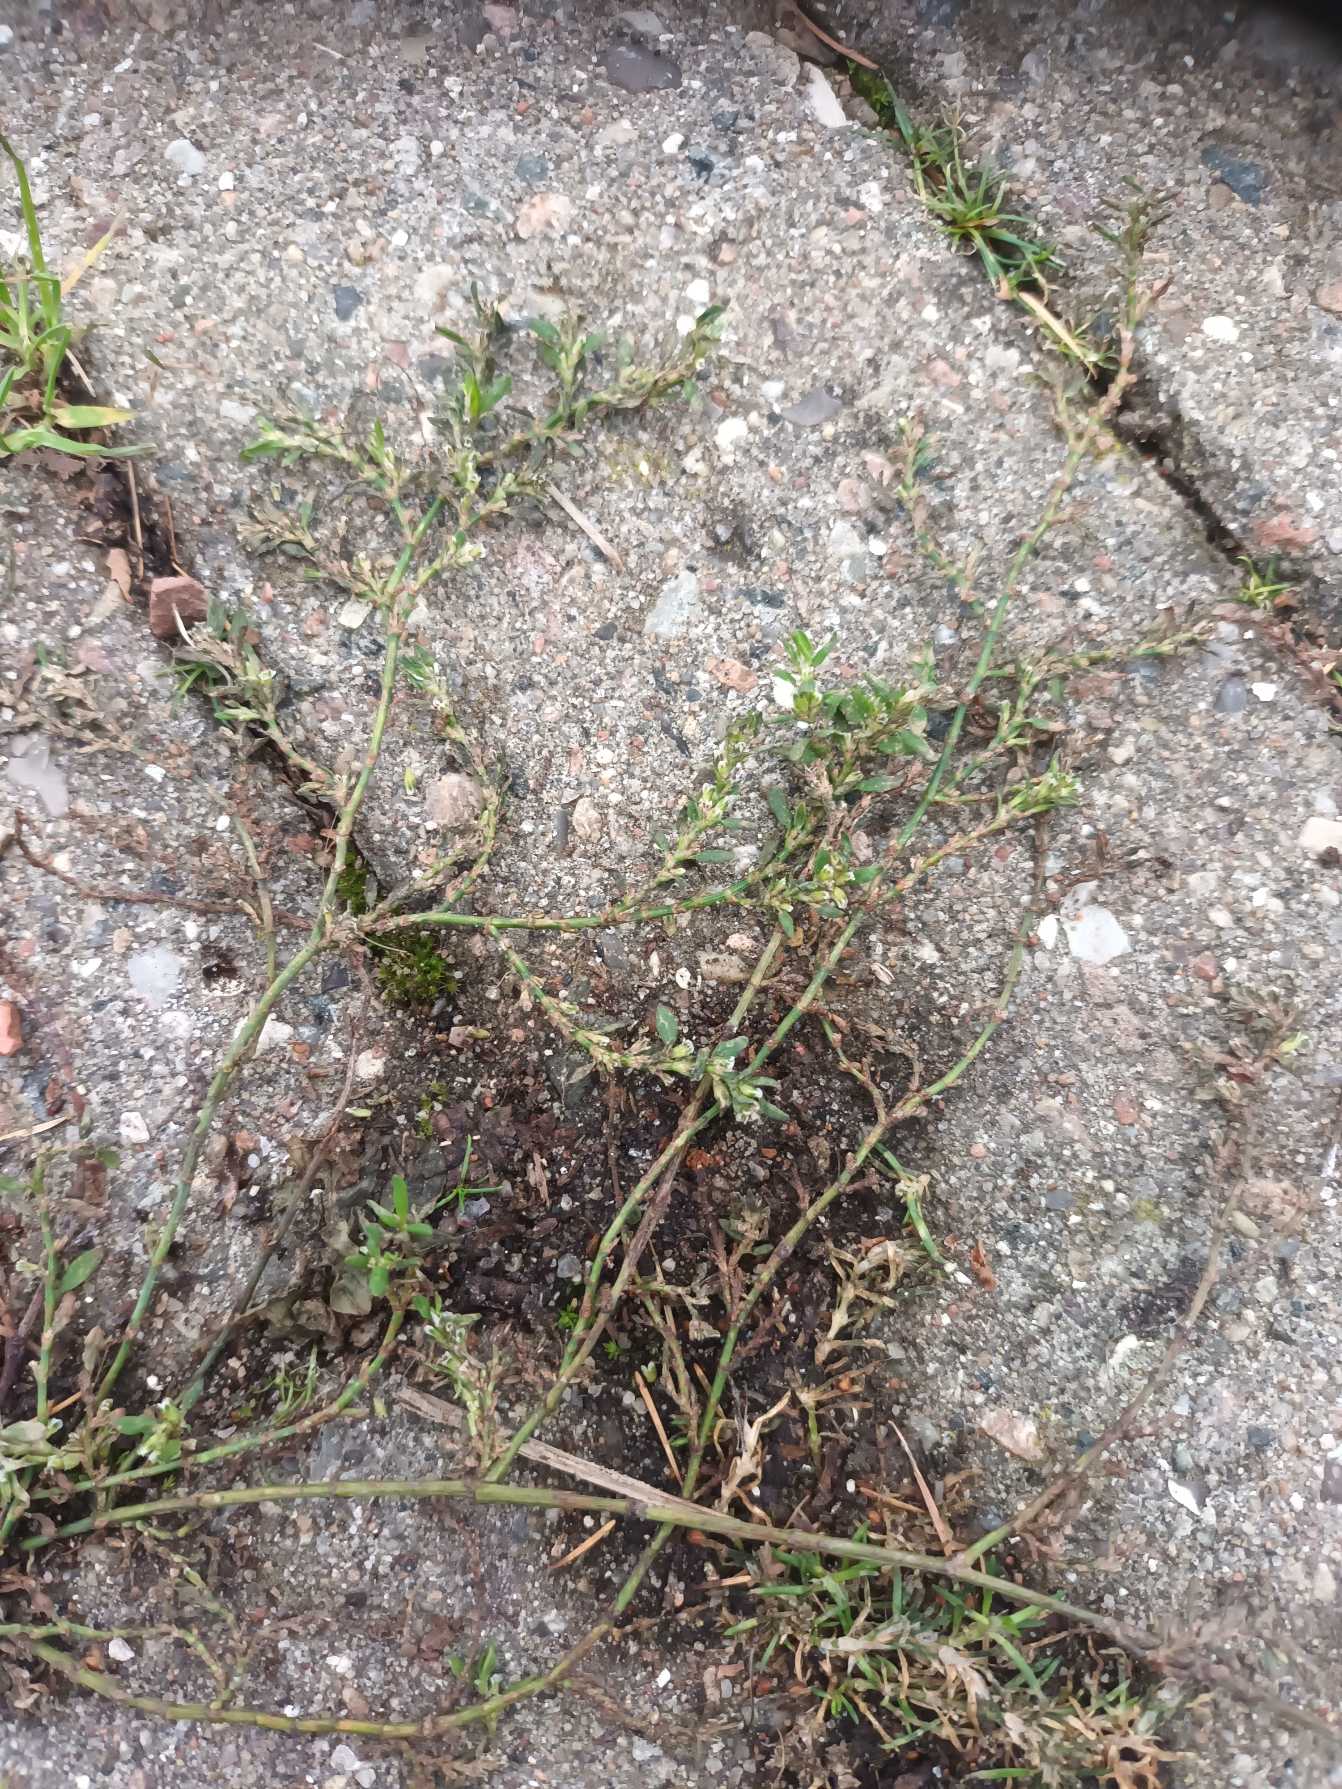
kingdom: Plantae
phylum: Tracheophyta
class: Magnoliopsida
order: Caryophyllales
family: Polygonaceae
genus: Polygonum
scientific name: Polygonum arenastrum
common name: Liggende vej-pileurt
